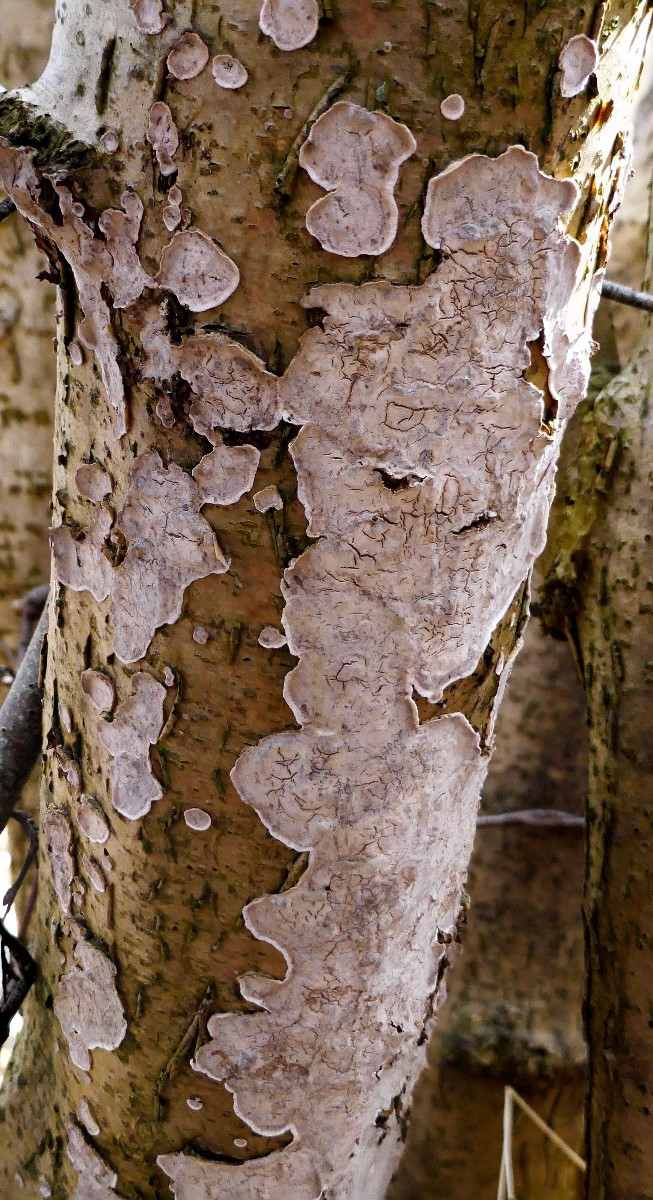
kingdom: Fungi
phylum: Basidiomycota
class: Agaricomycetes
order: Russulales
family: Stereaceae
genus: Stereum
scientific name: Stereum rugosum
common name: rynket lædersvamp
